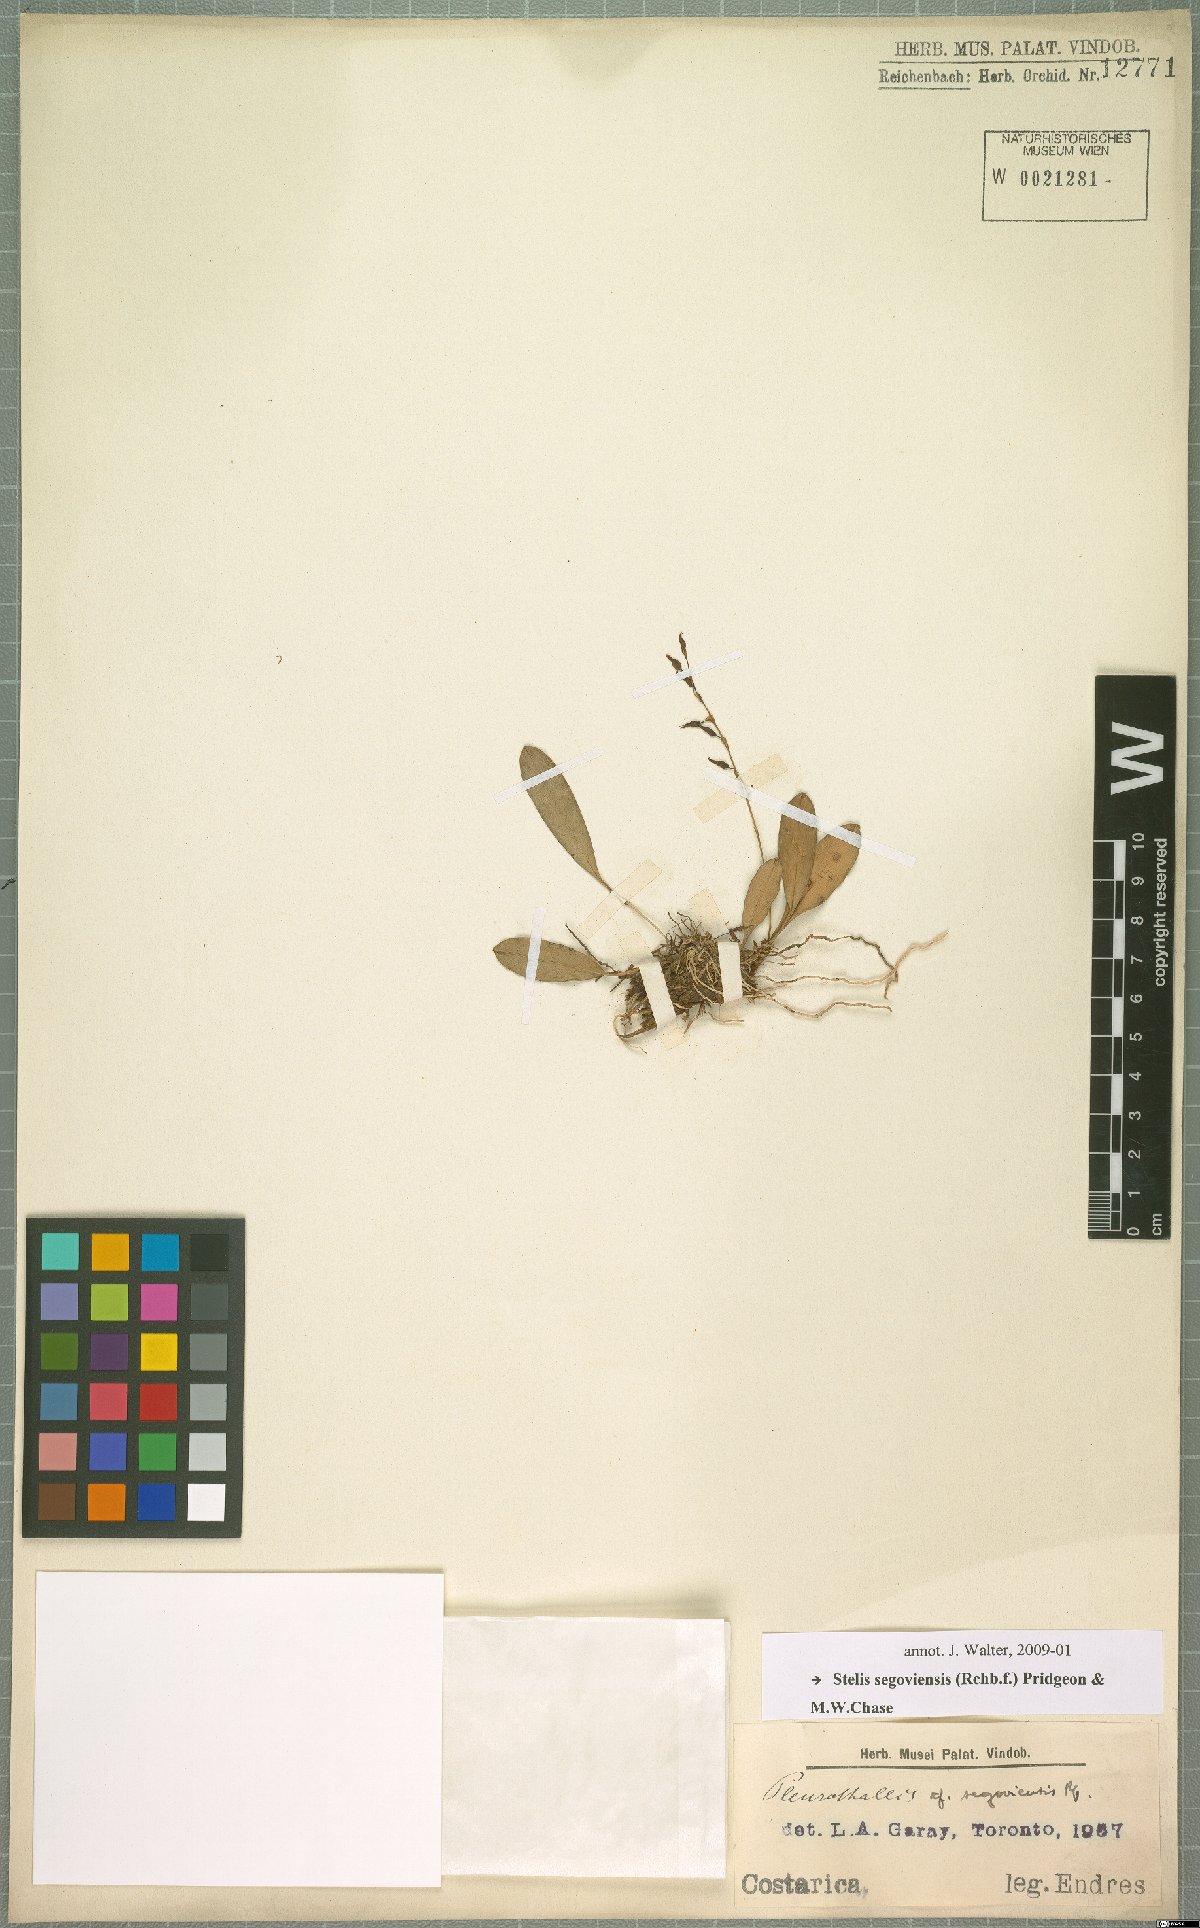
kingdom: Plantae
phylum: Tracheophyta
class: Liliopsida
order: Asparagales
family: Orchidaceae
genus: Stelis
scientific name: Stelis segoviensis
